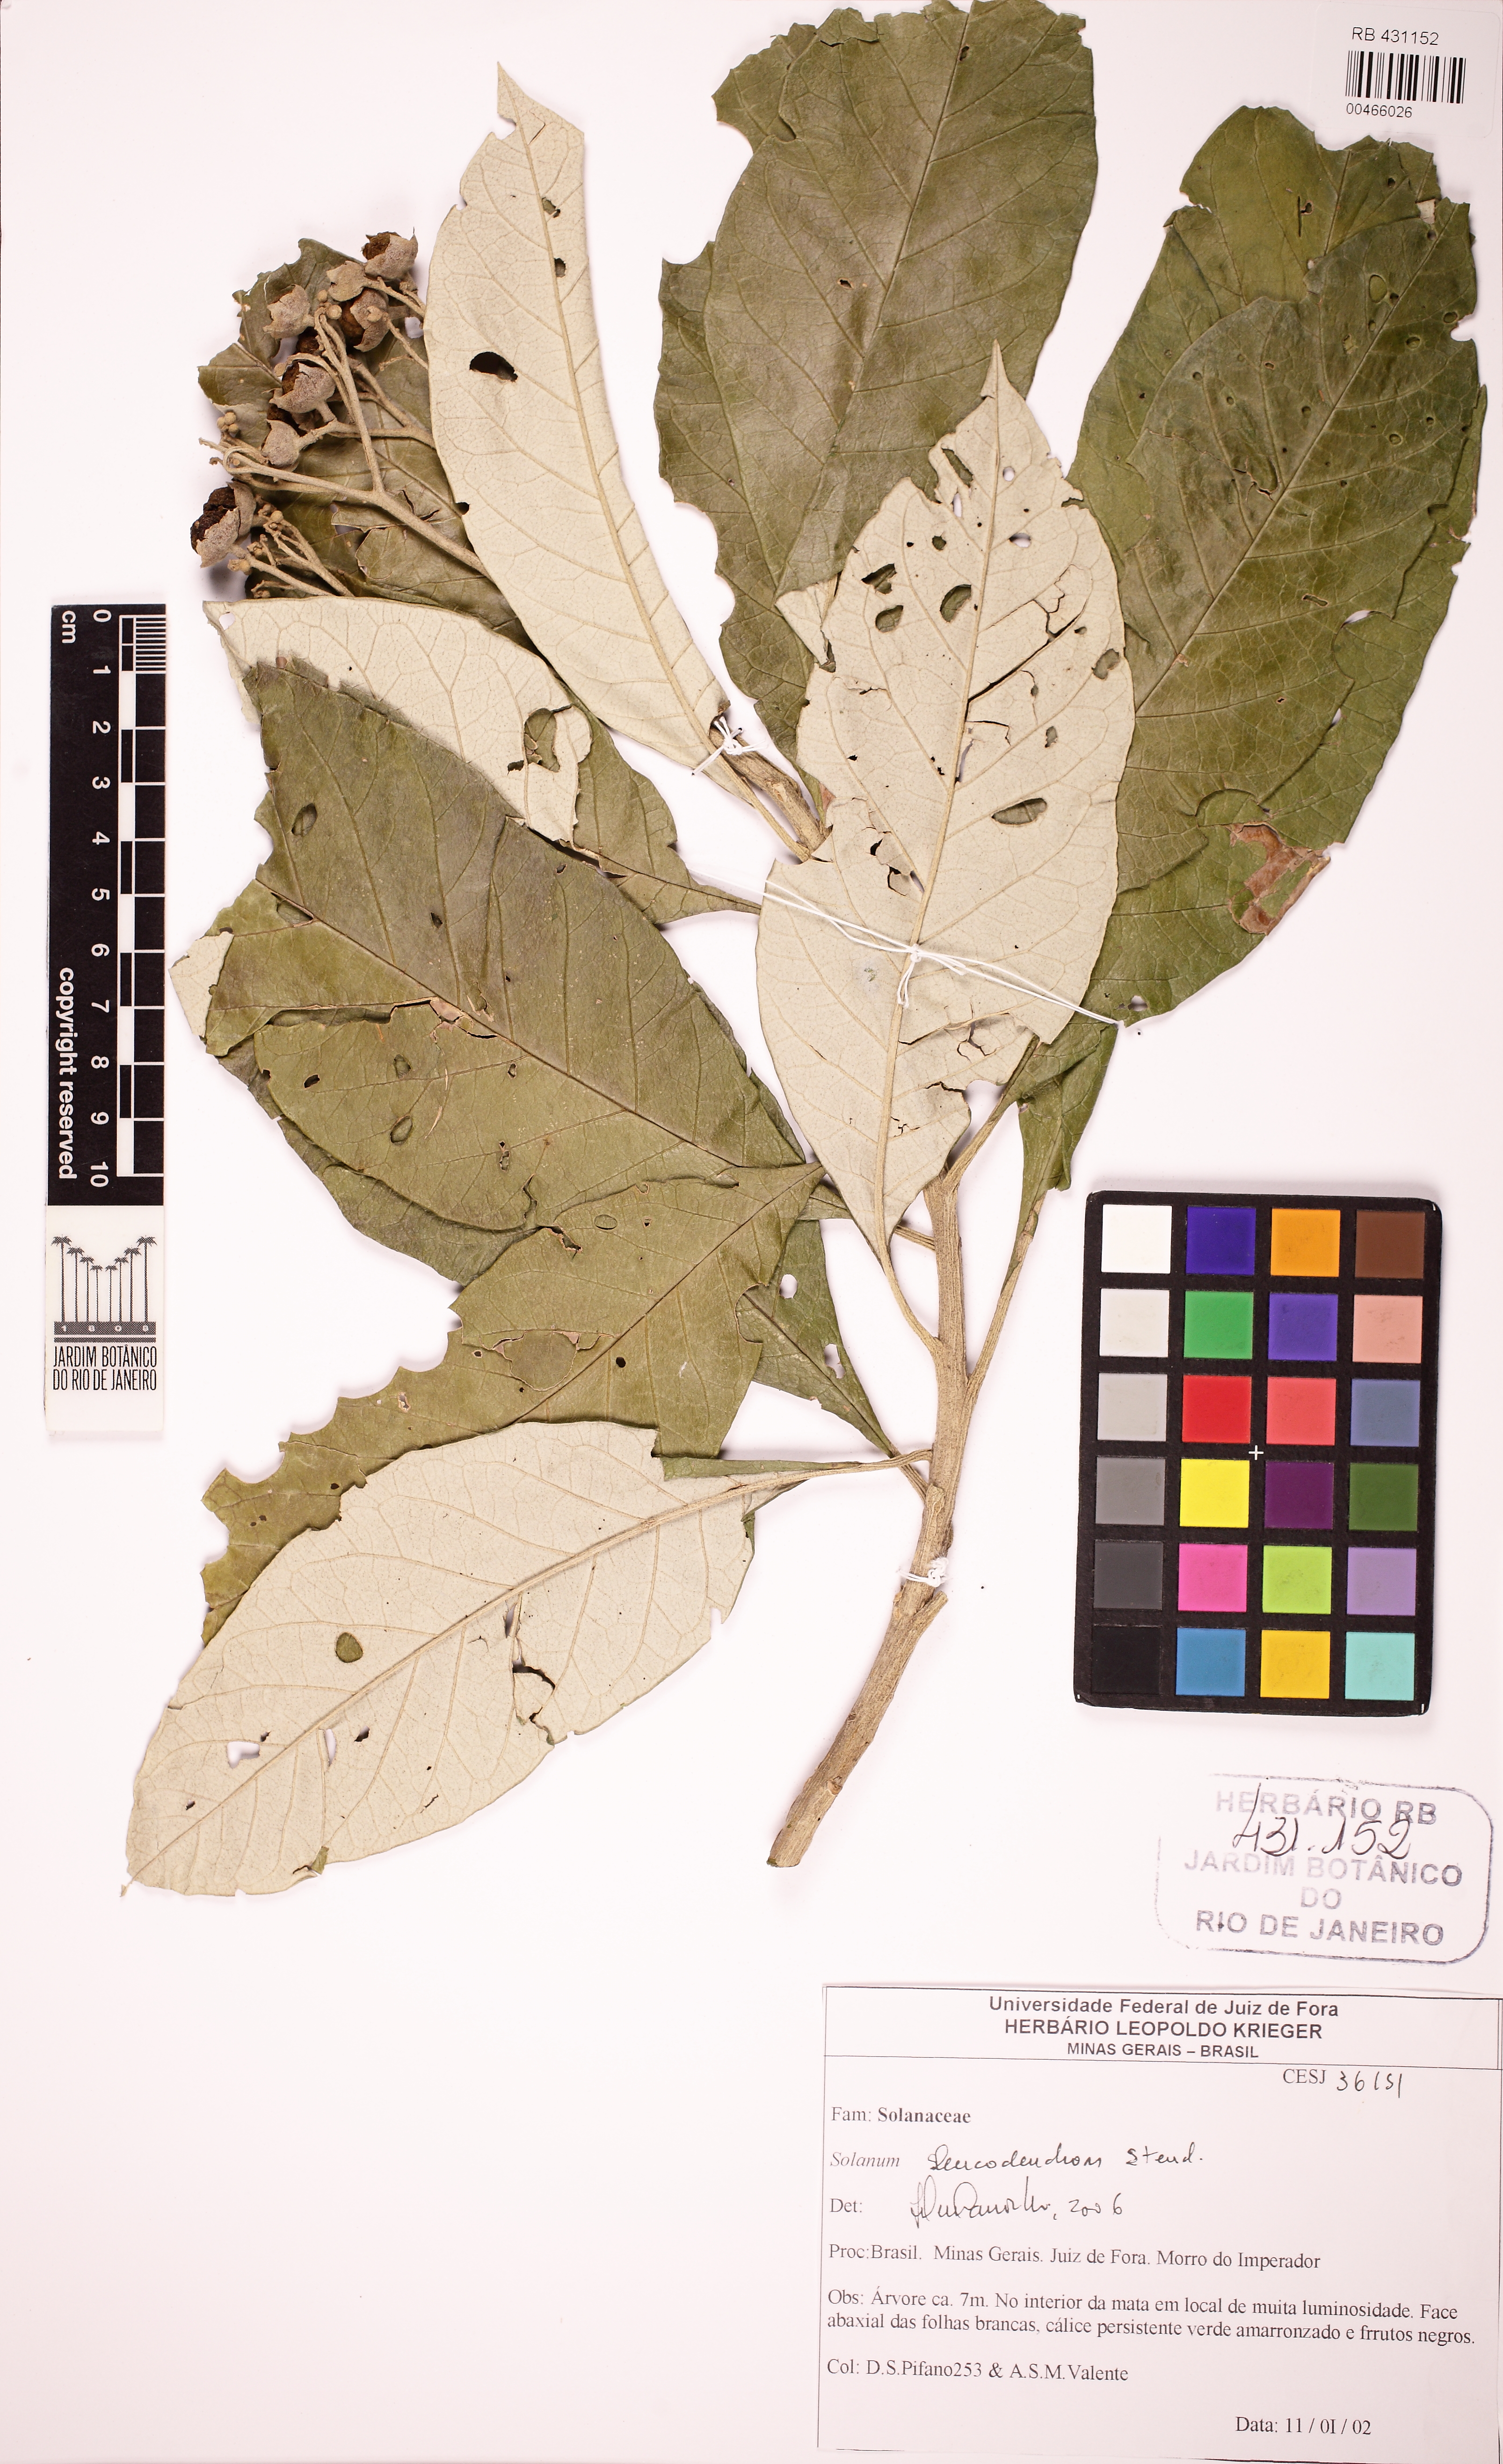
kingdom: Plantae
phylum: Tracheophyta
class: Magnoliopsida
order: Solanales
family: Solanaceae
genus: Solanum
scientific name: Solanum leucodendron
